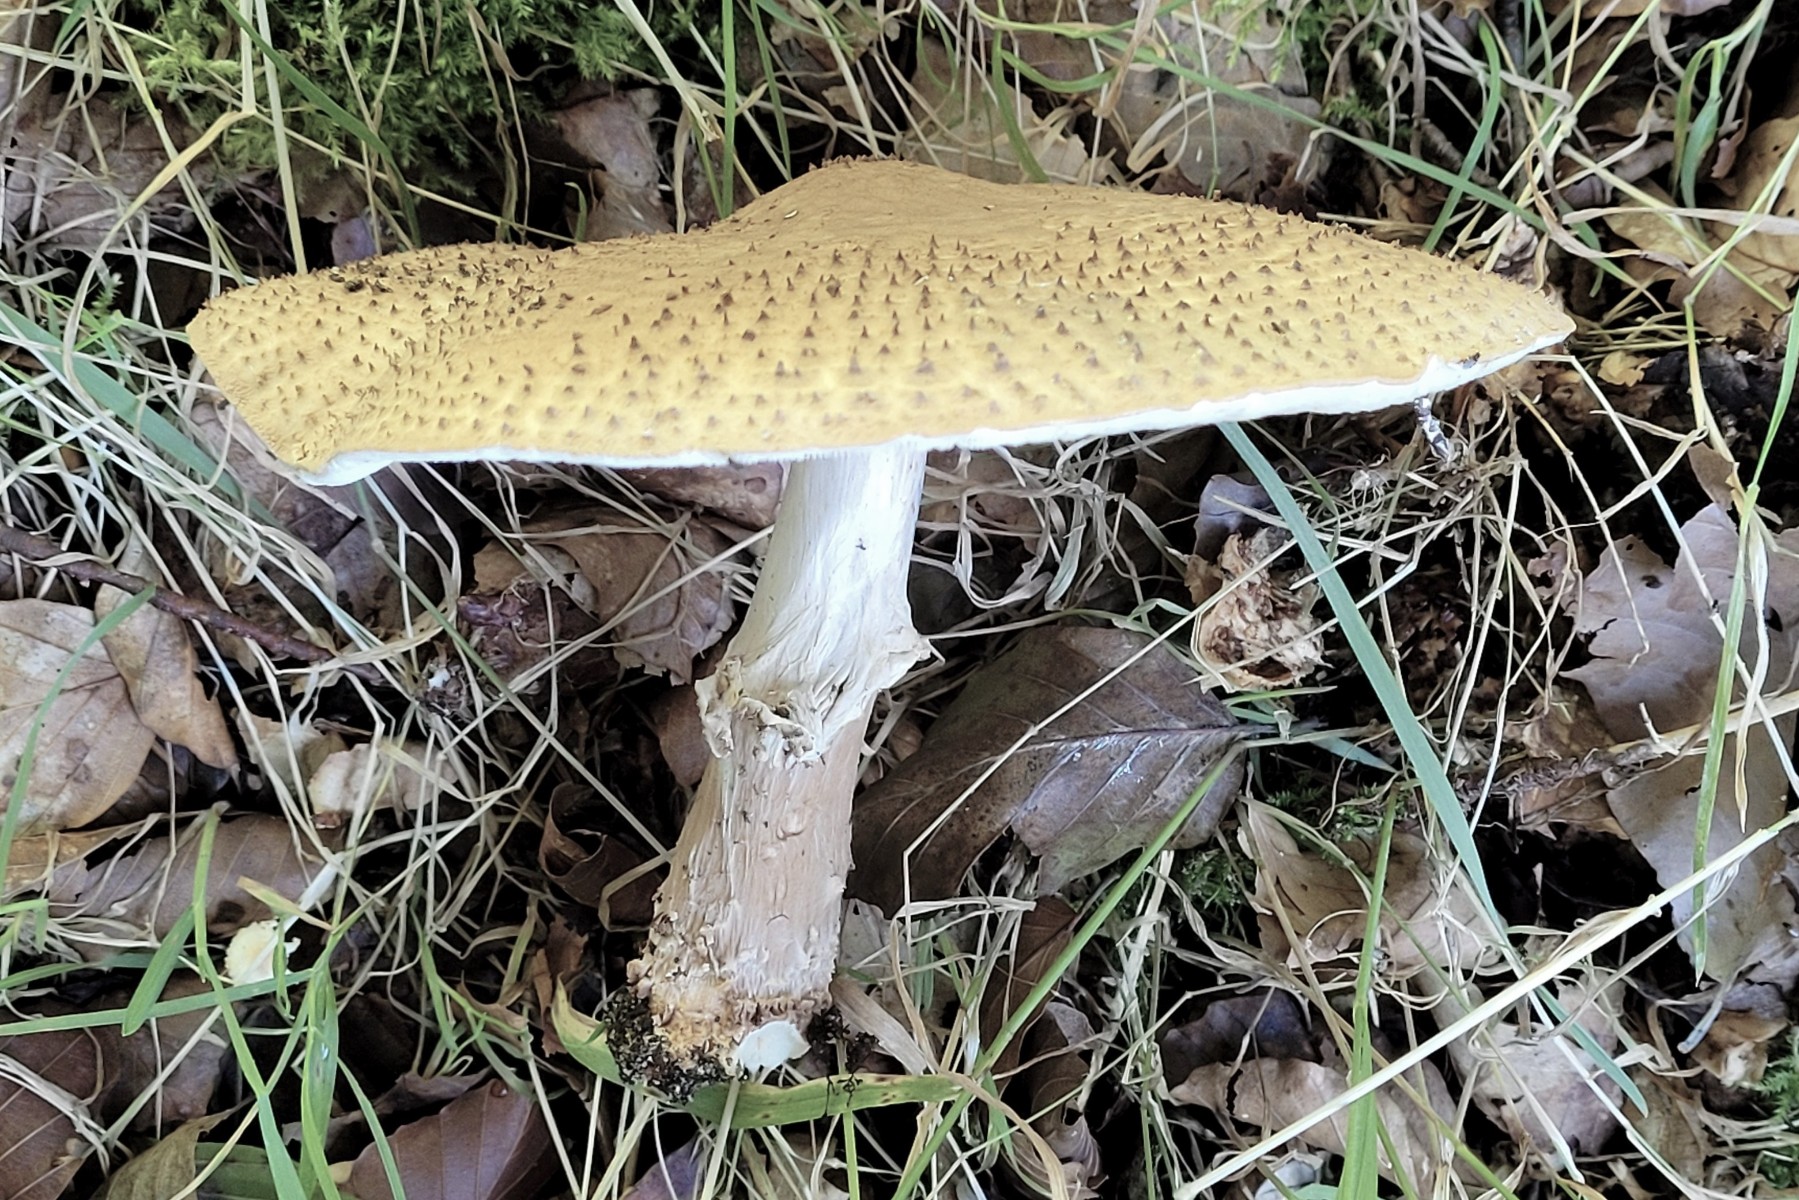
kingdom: Fungi
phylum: Basidiomycota
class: Agaricomycetes
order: Agaricales
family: Agaricaceae
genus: Echinoderma
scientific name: Echinoderma asperum
